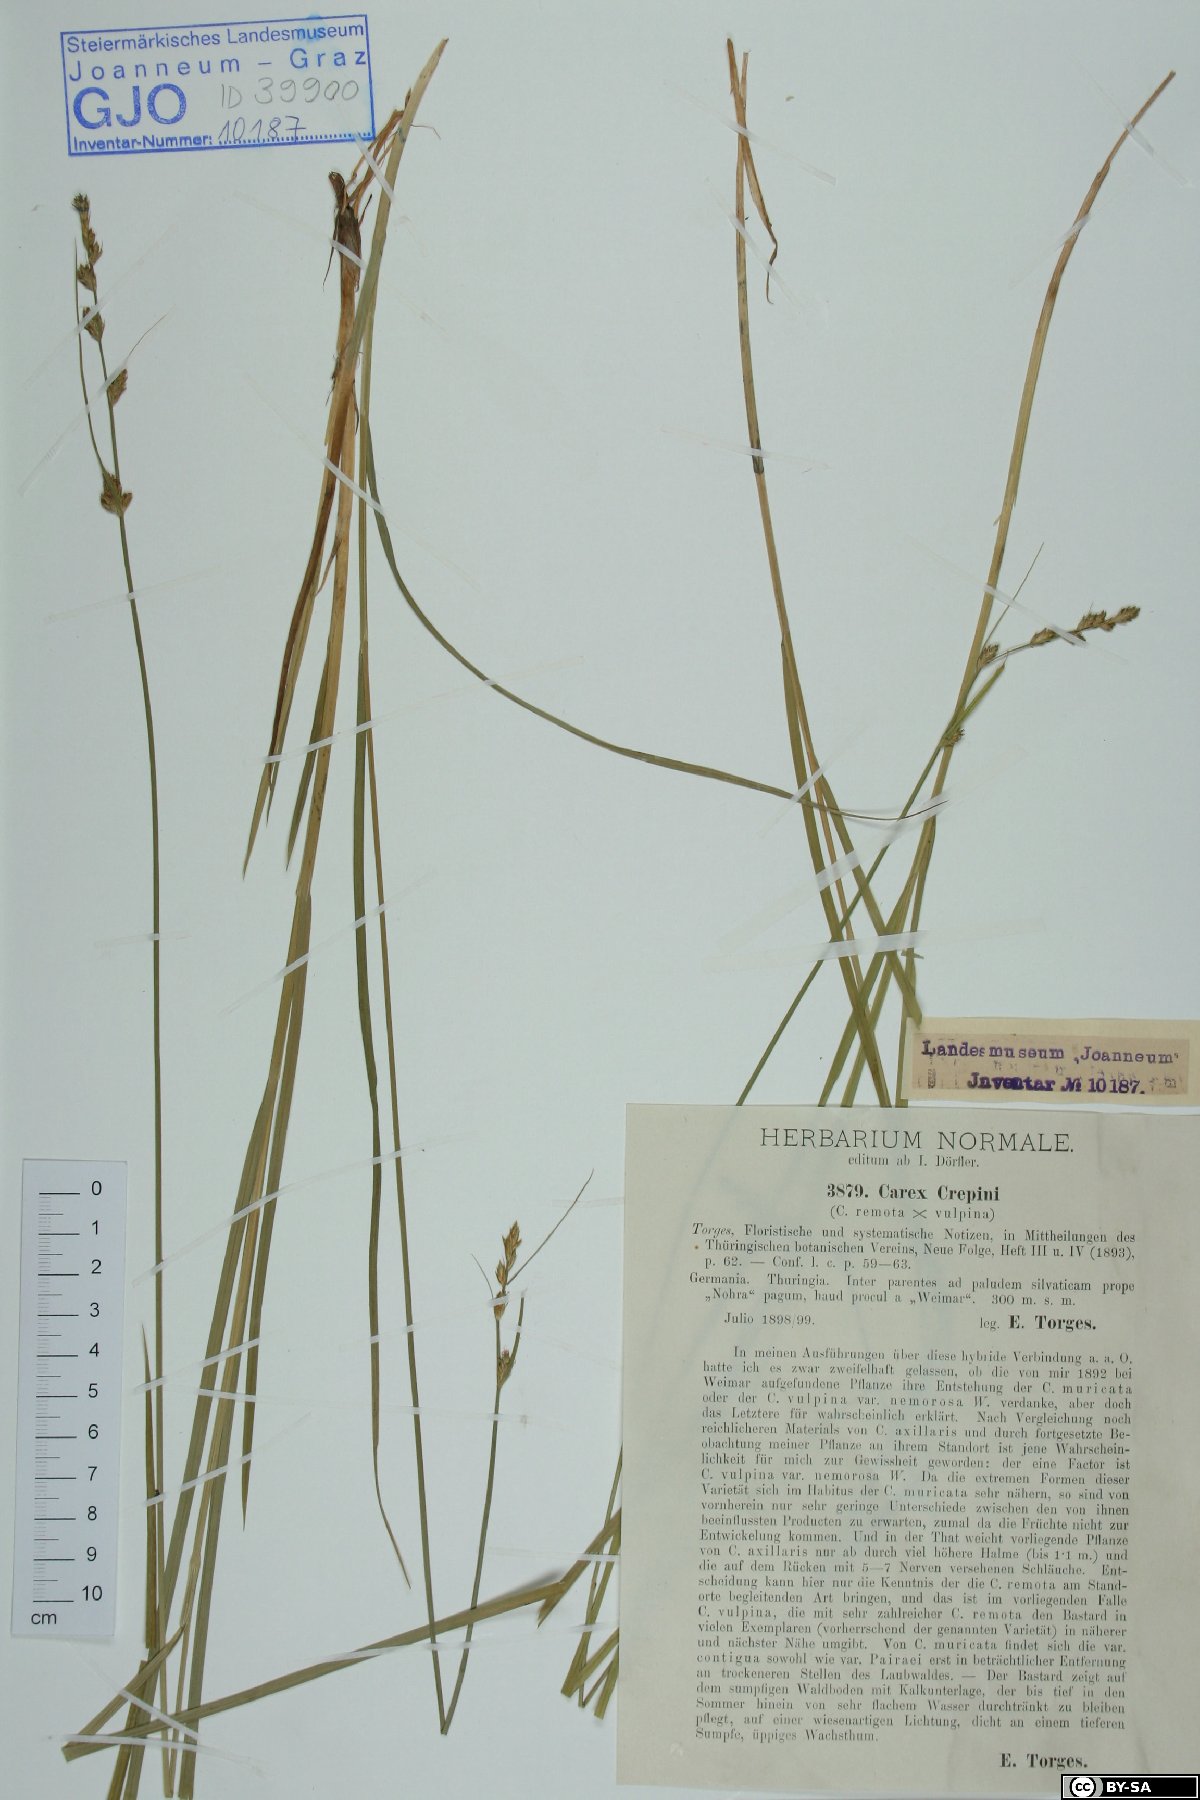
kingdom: Plantae
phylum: Tracheophyta
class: Liliopsida
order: Poales
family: Cyperaceae
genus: Carex
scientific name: Carex crepinii
